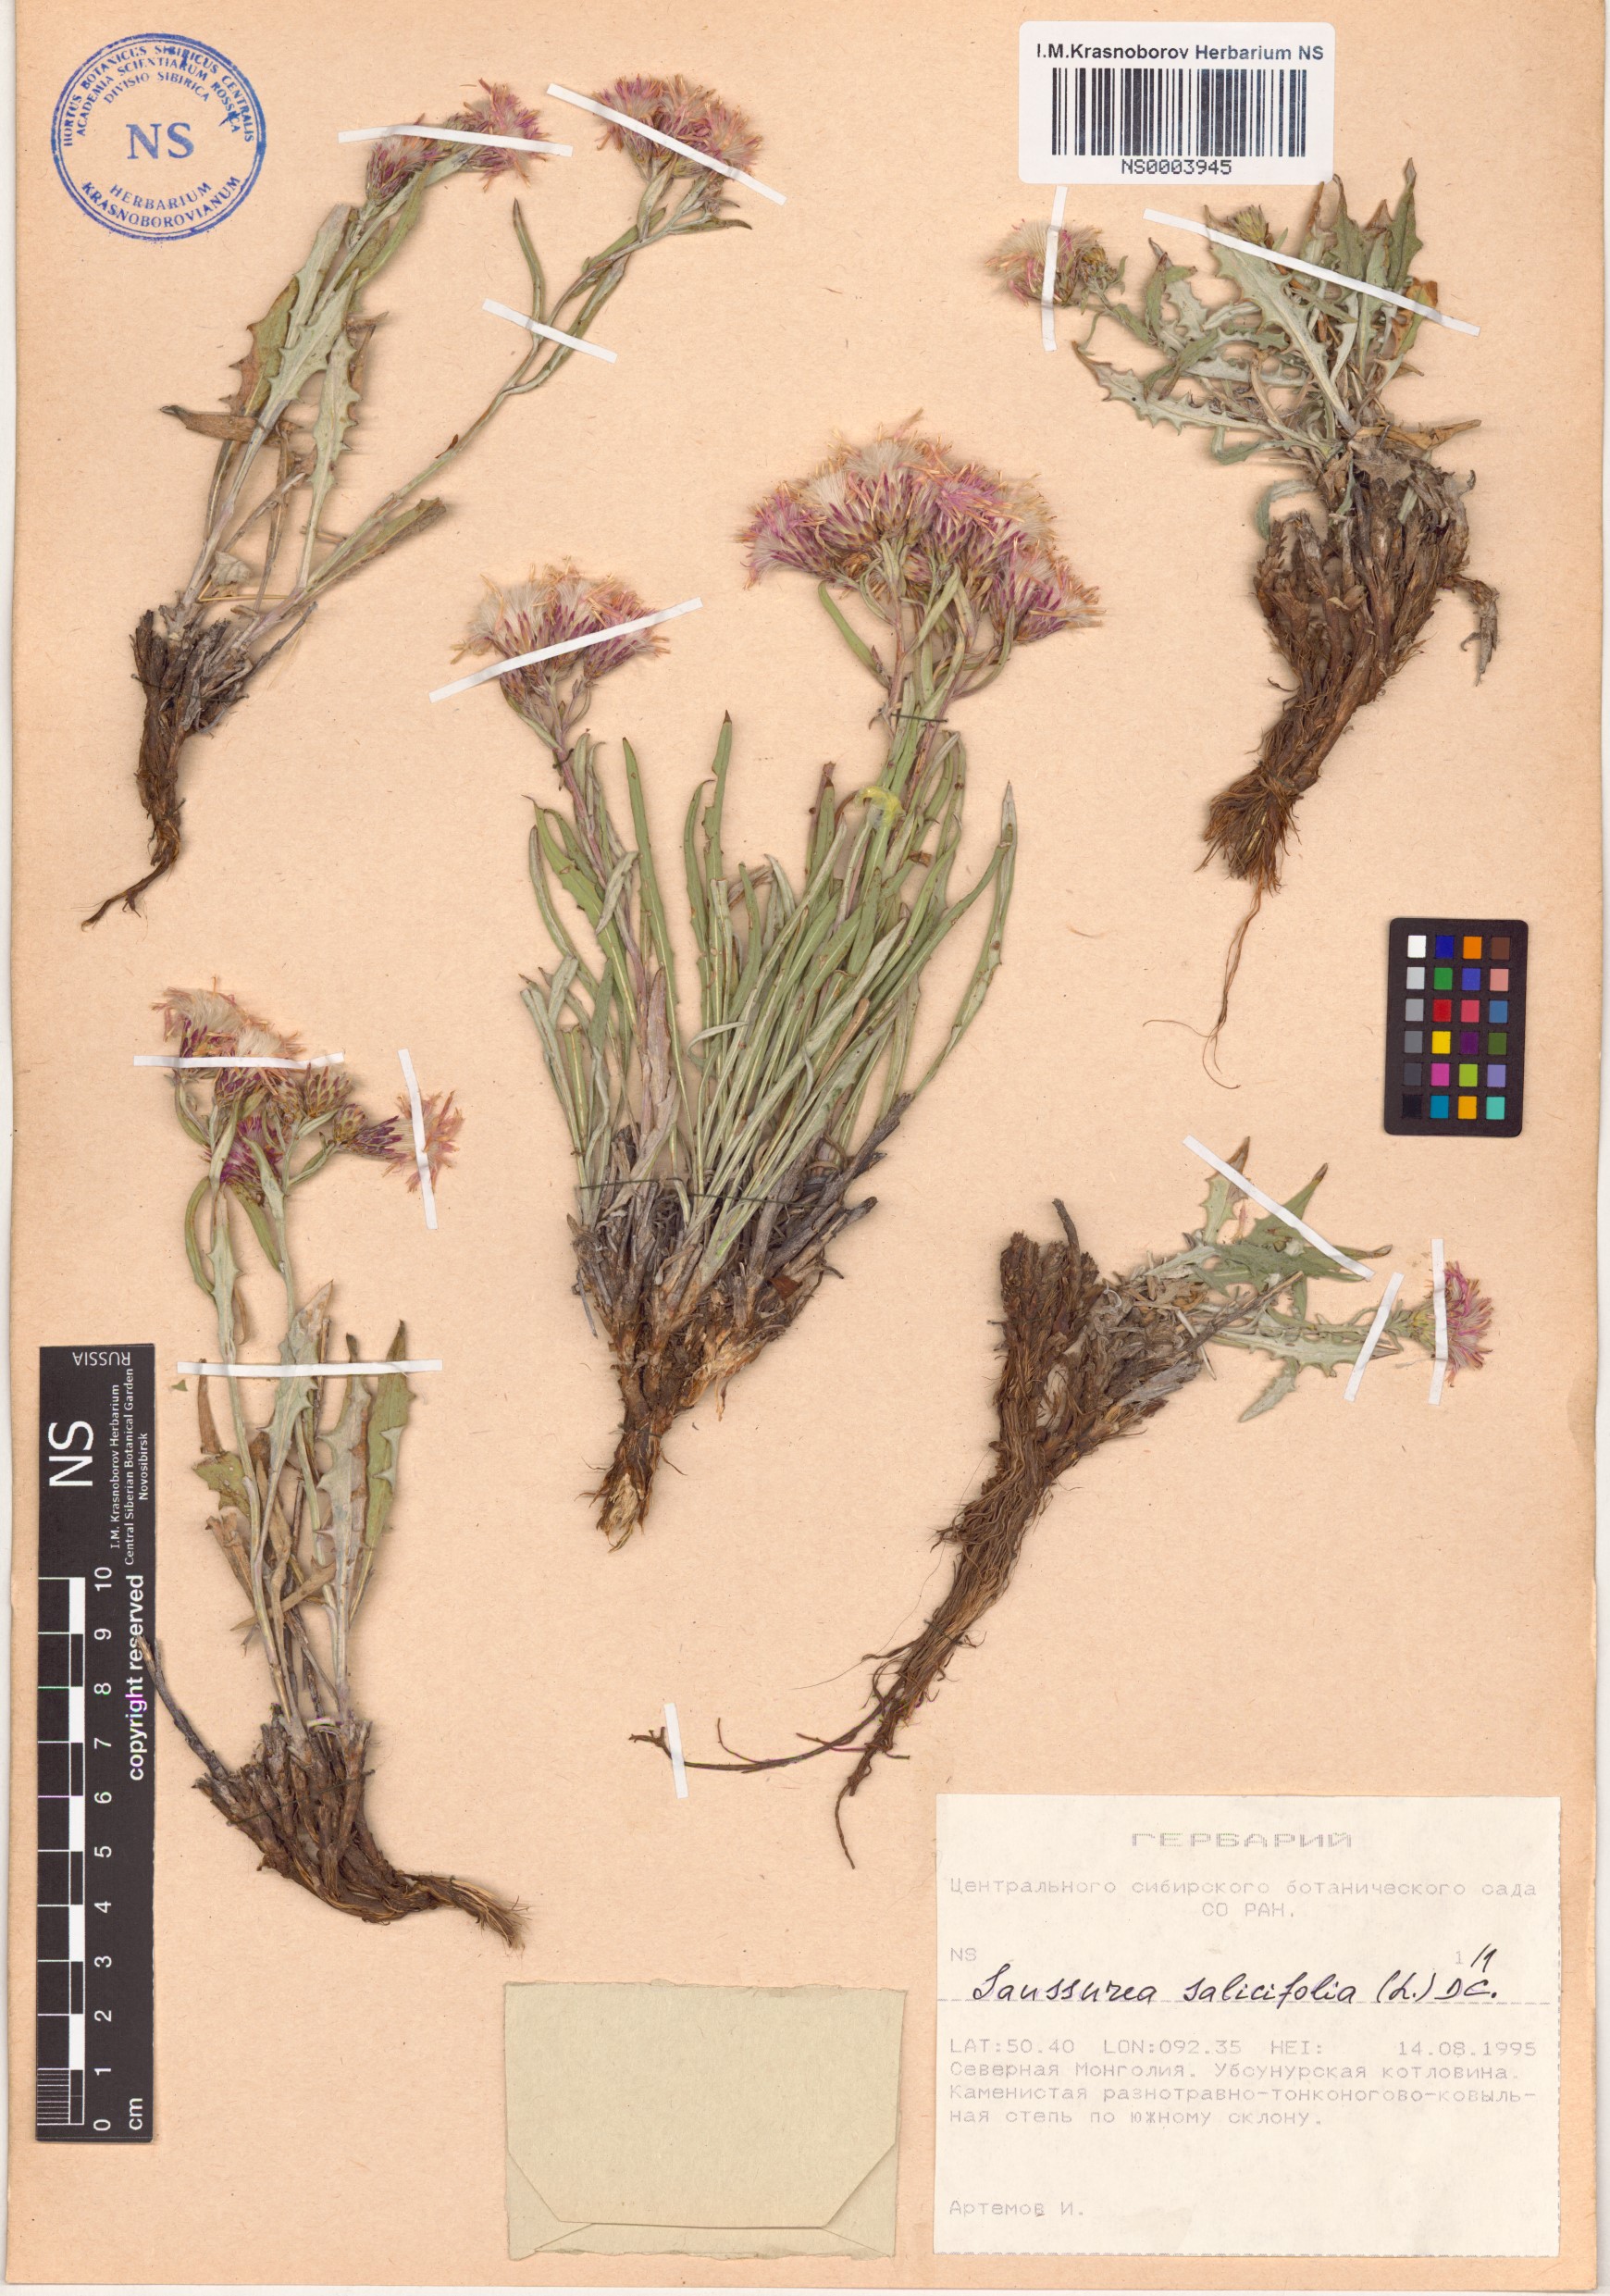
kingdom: Plantae
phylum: Tracheophyta
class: Magnoliopsida
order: Asterales
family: Asteraceae
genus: Saussurea
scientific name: Saussurea salicifolia
